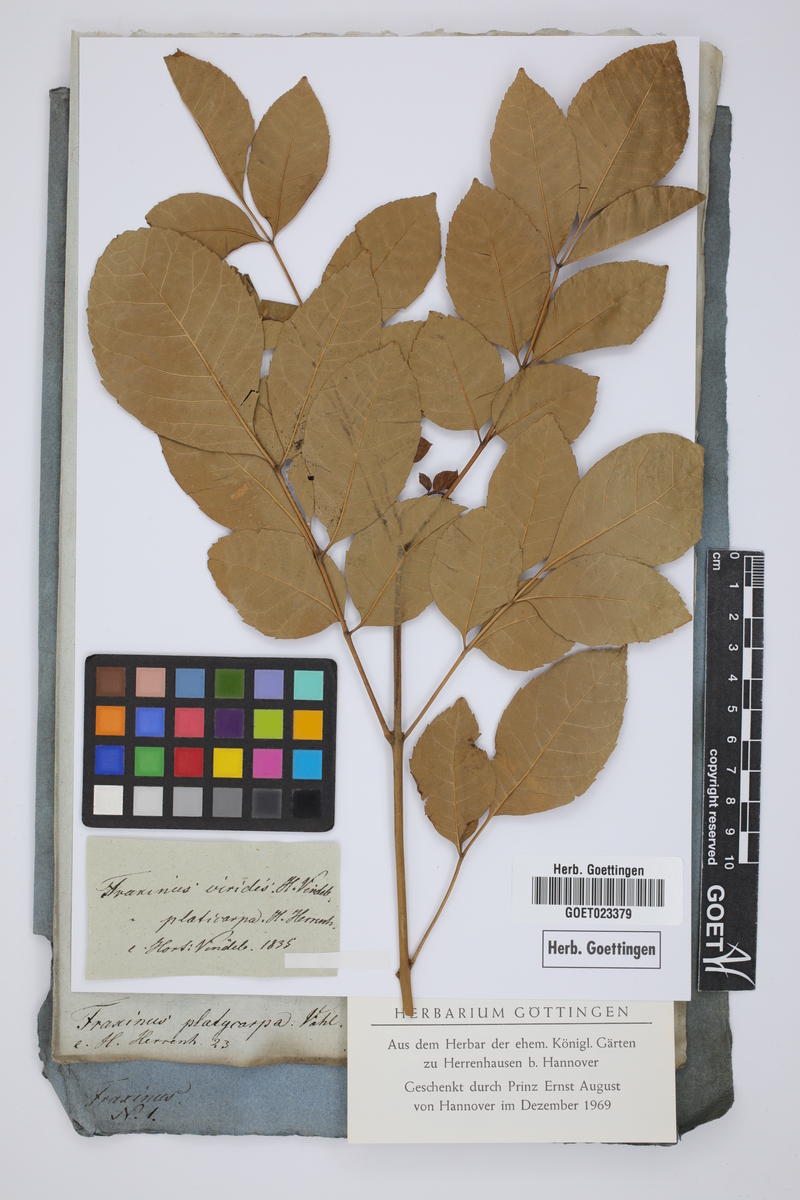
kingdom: Plantae
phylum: Tracheophyta
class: Magnoliopsida
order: Lamiales
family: Oleaceae
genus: Fraxinus
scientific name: Fraxinus pennsylvanica
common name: Green ash
